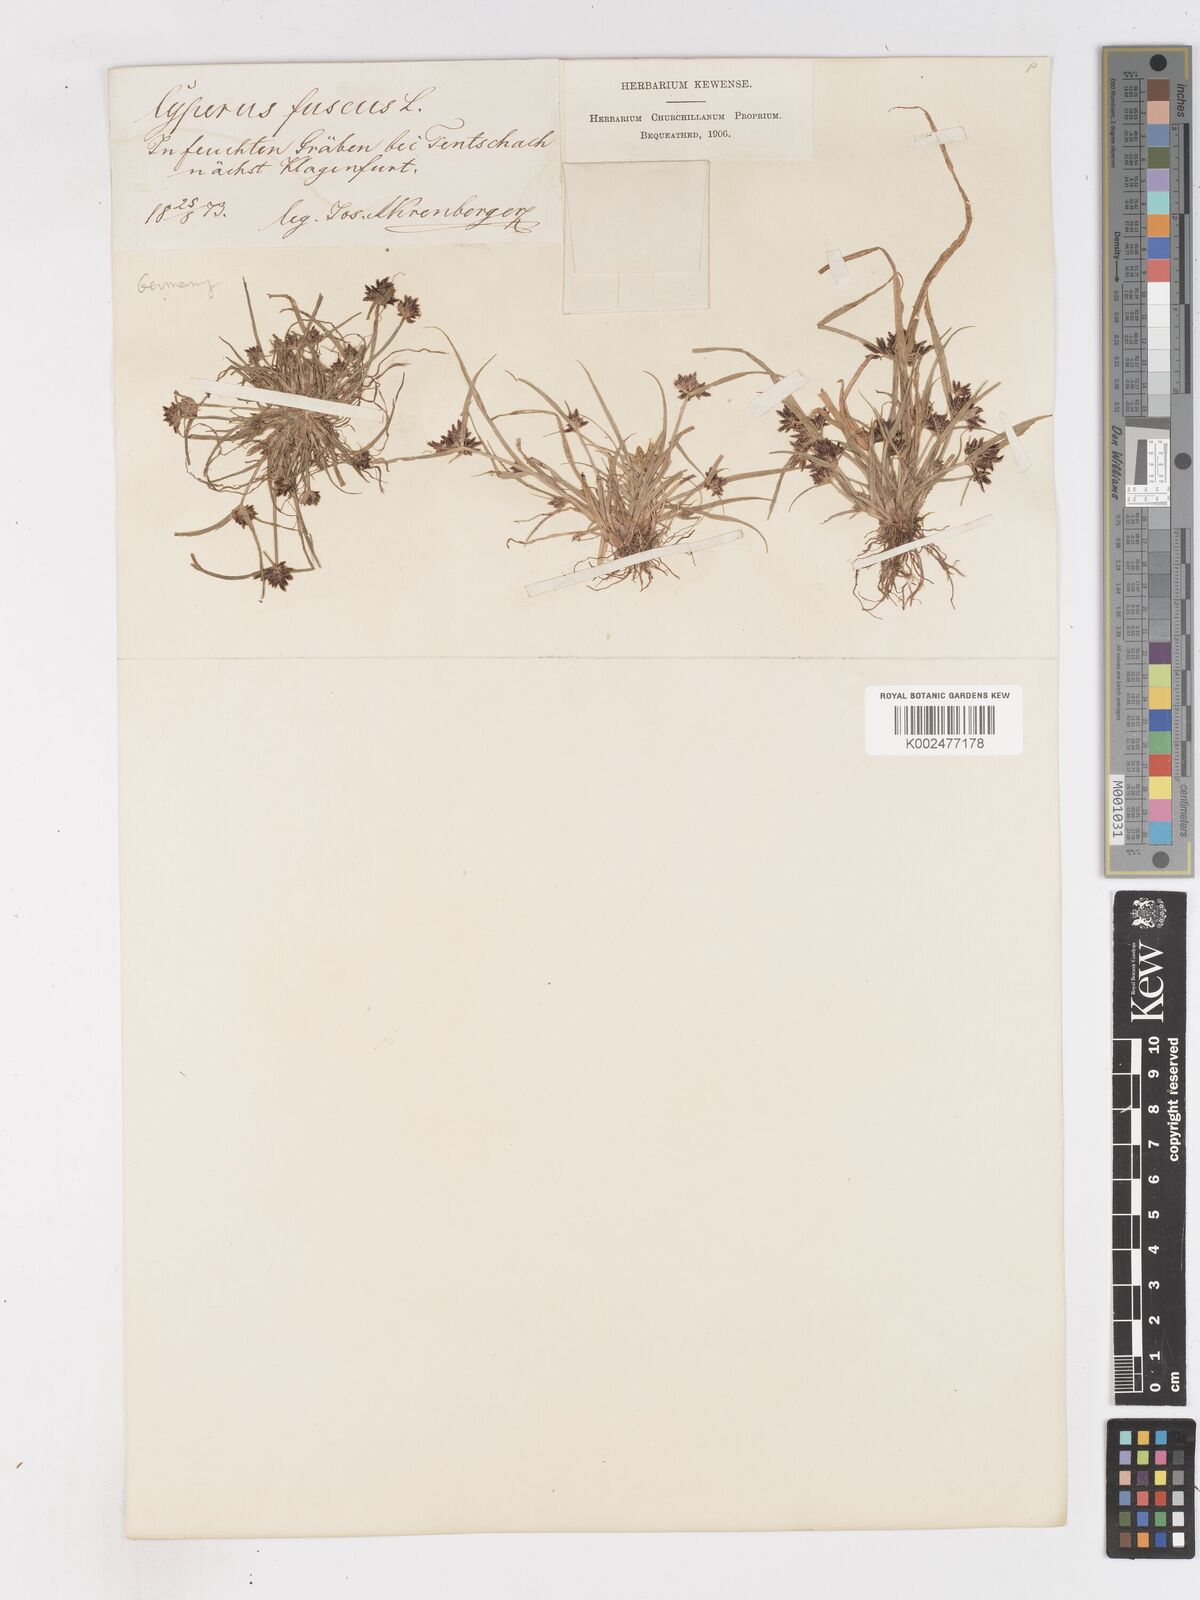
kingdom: Plantae
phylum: Tracheophyta
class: Liliopsida
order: Poales
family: Cyperaceae
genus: Cyperus
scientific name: Cyperus fuscus
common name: Brown galingale
